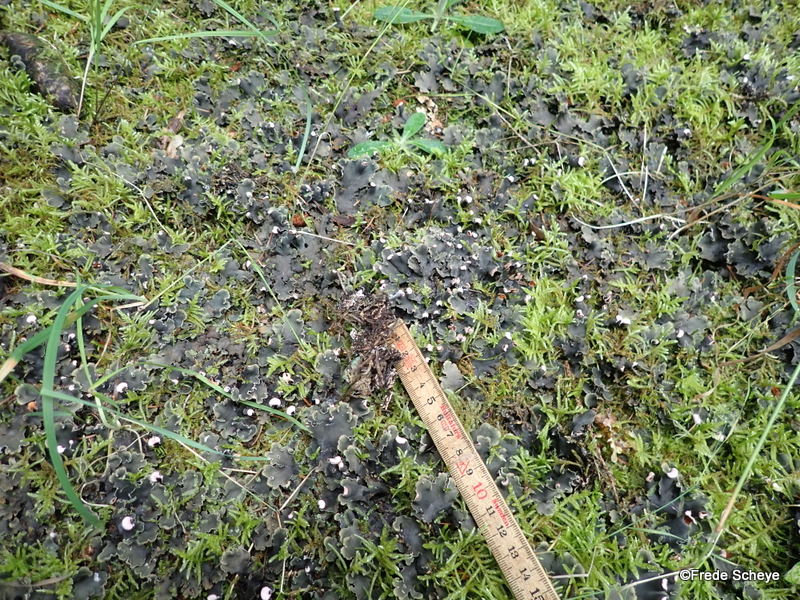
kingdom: Fungi
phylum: Ascomycota
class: Lecanoromycetes
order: Peltigerales
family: Peltigeraceae
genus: Peltigera
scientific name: Peltigera canina
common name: hunde-skjoldlav
